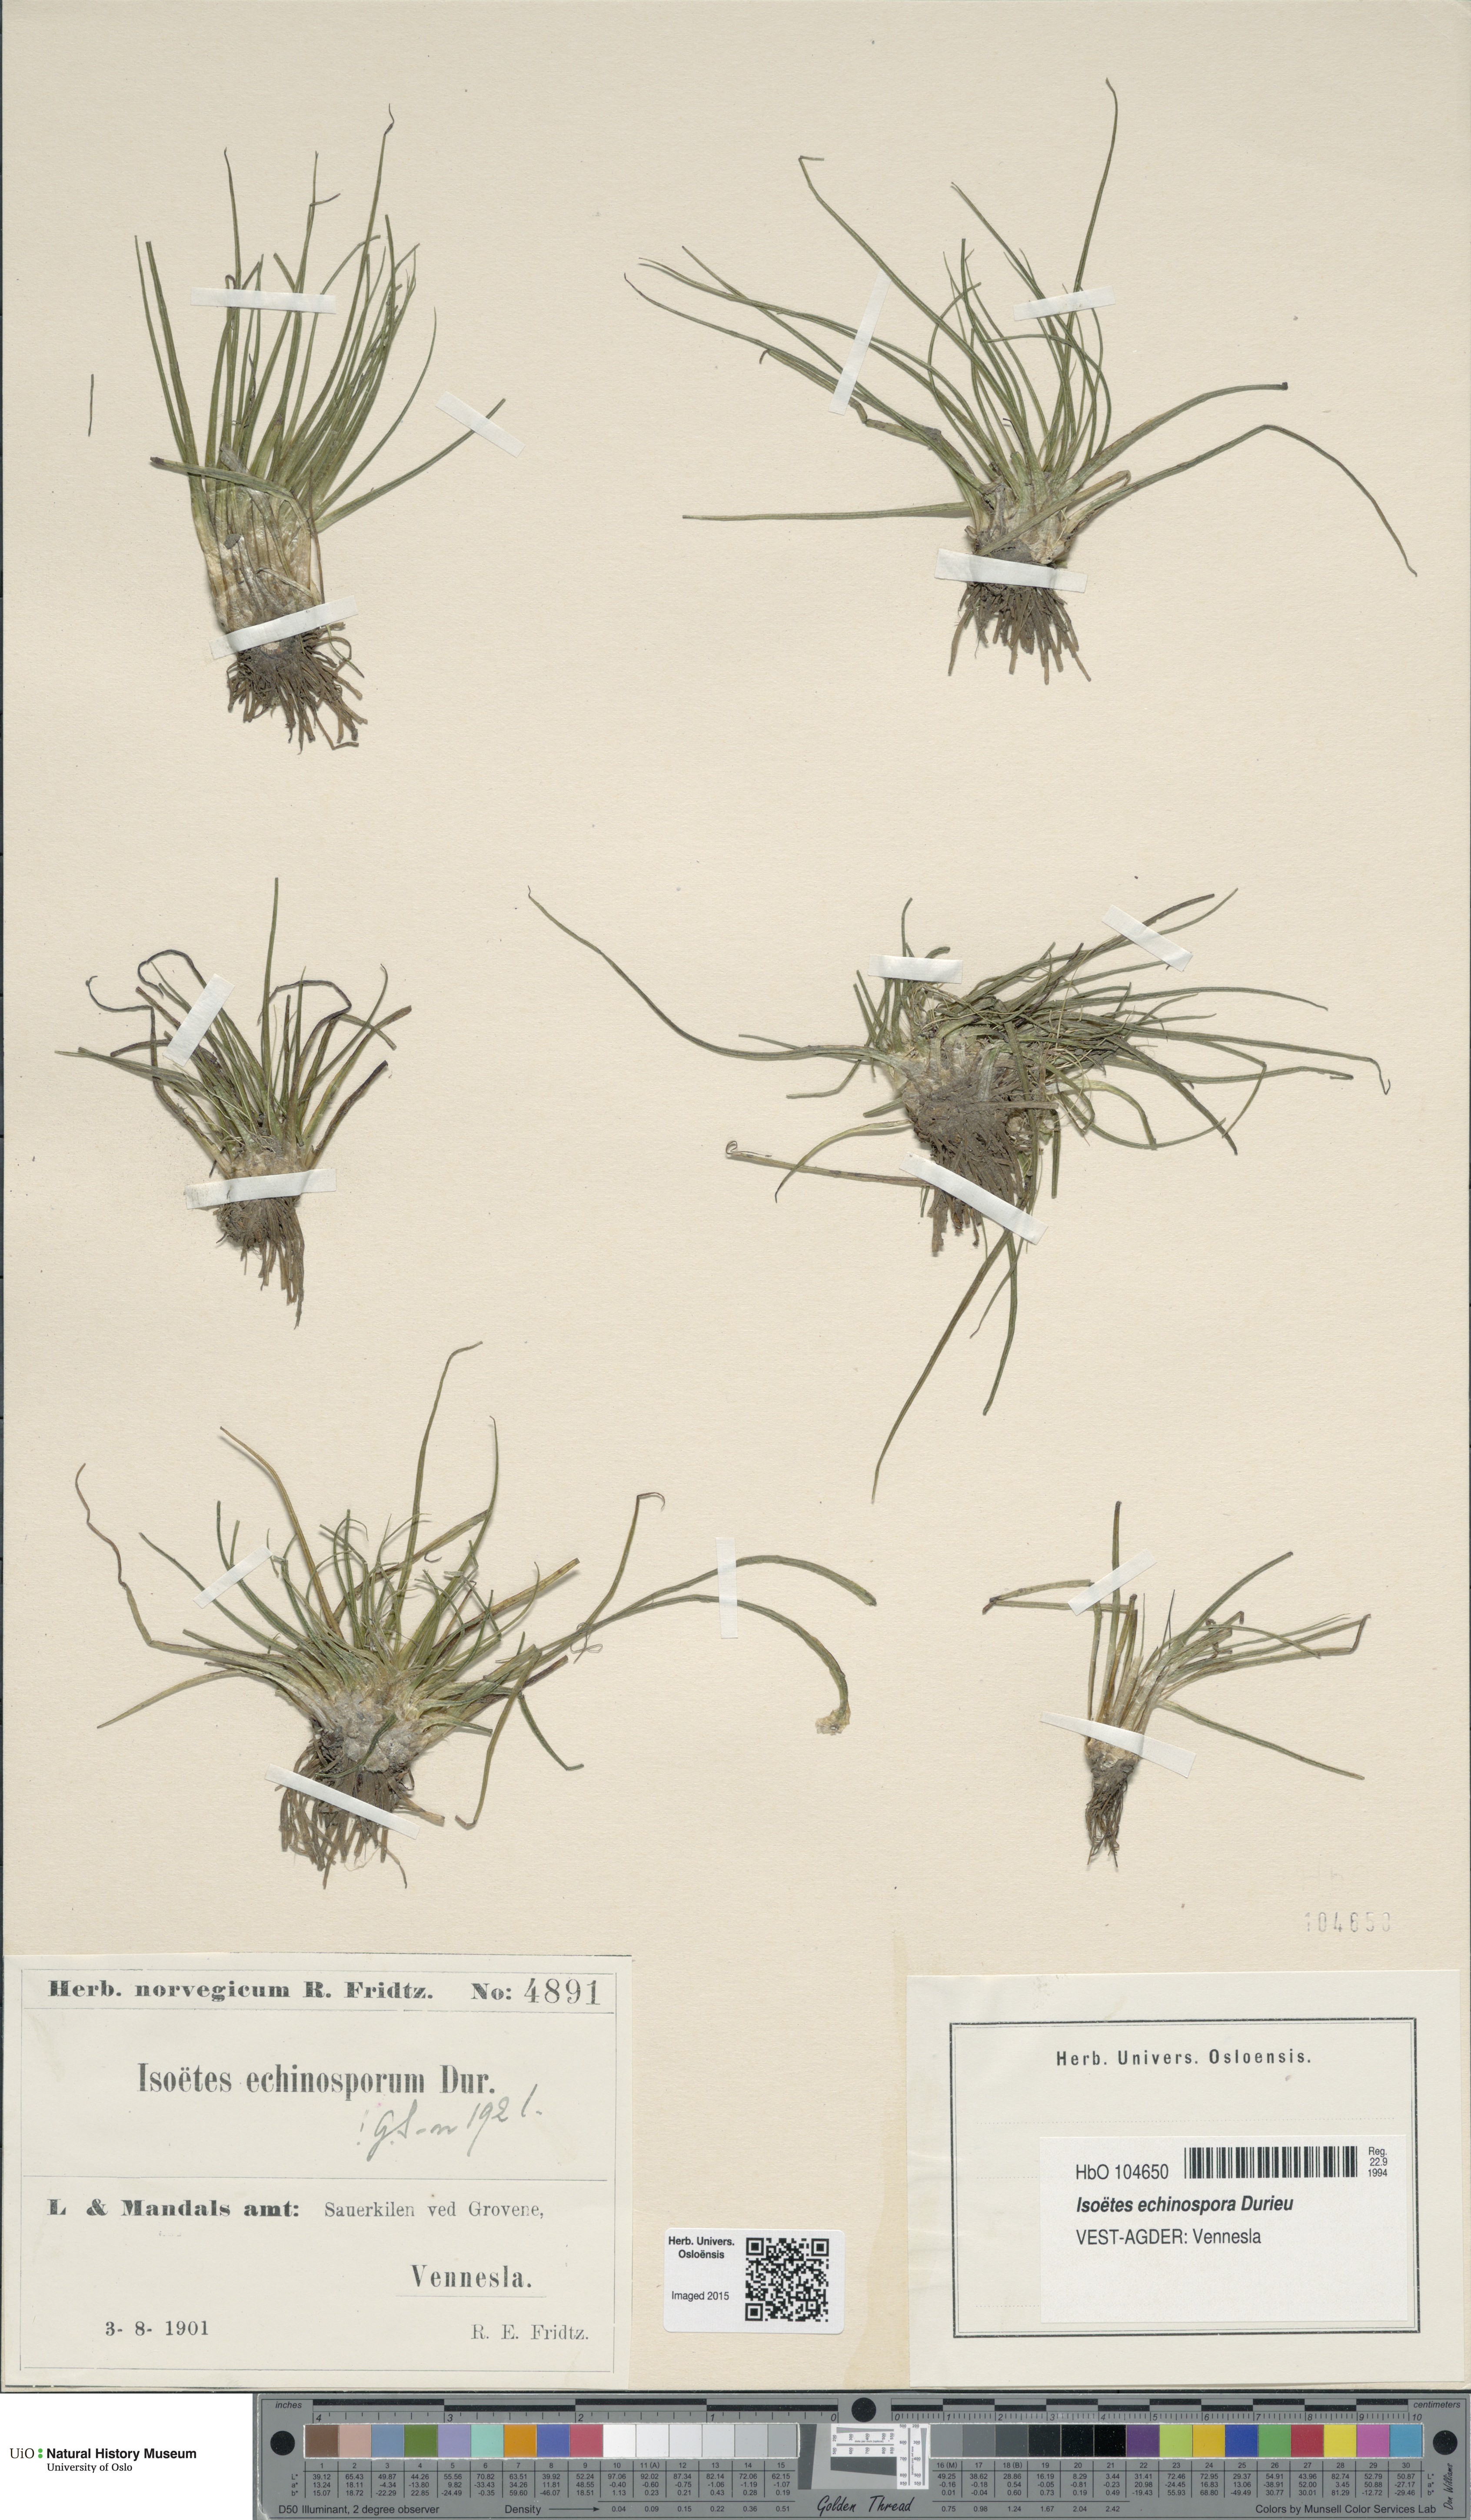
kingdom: Plantae
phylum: Tracheophyta
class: Lycopodiopsida
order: Isoetales
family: Isoetaceae
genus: Isoetes
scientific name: Isoetes echinospora
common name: Spring quillwort
